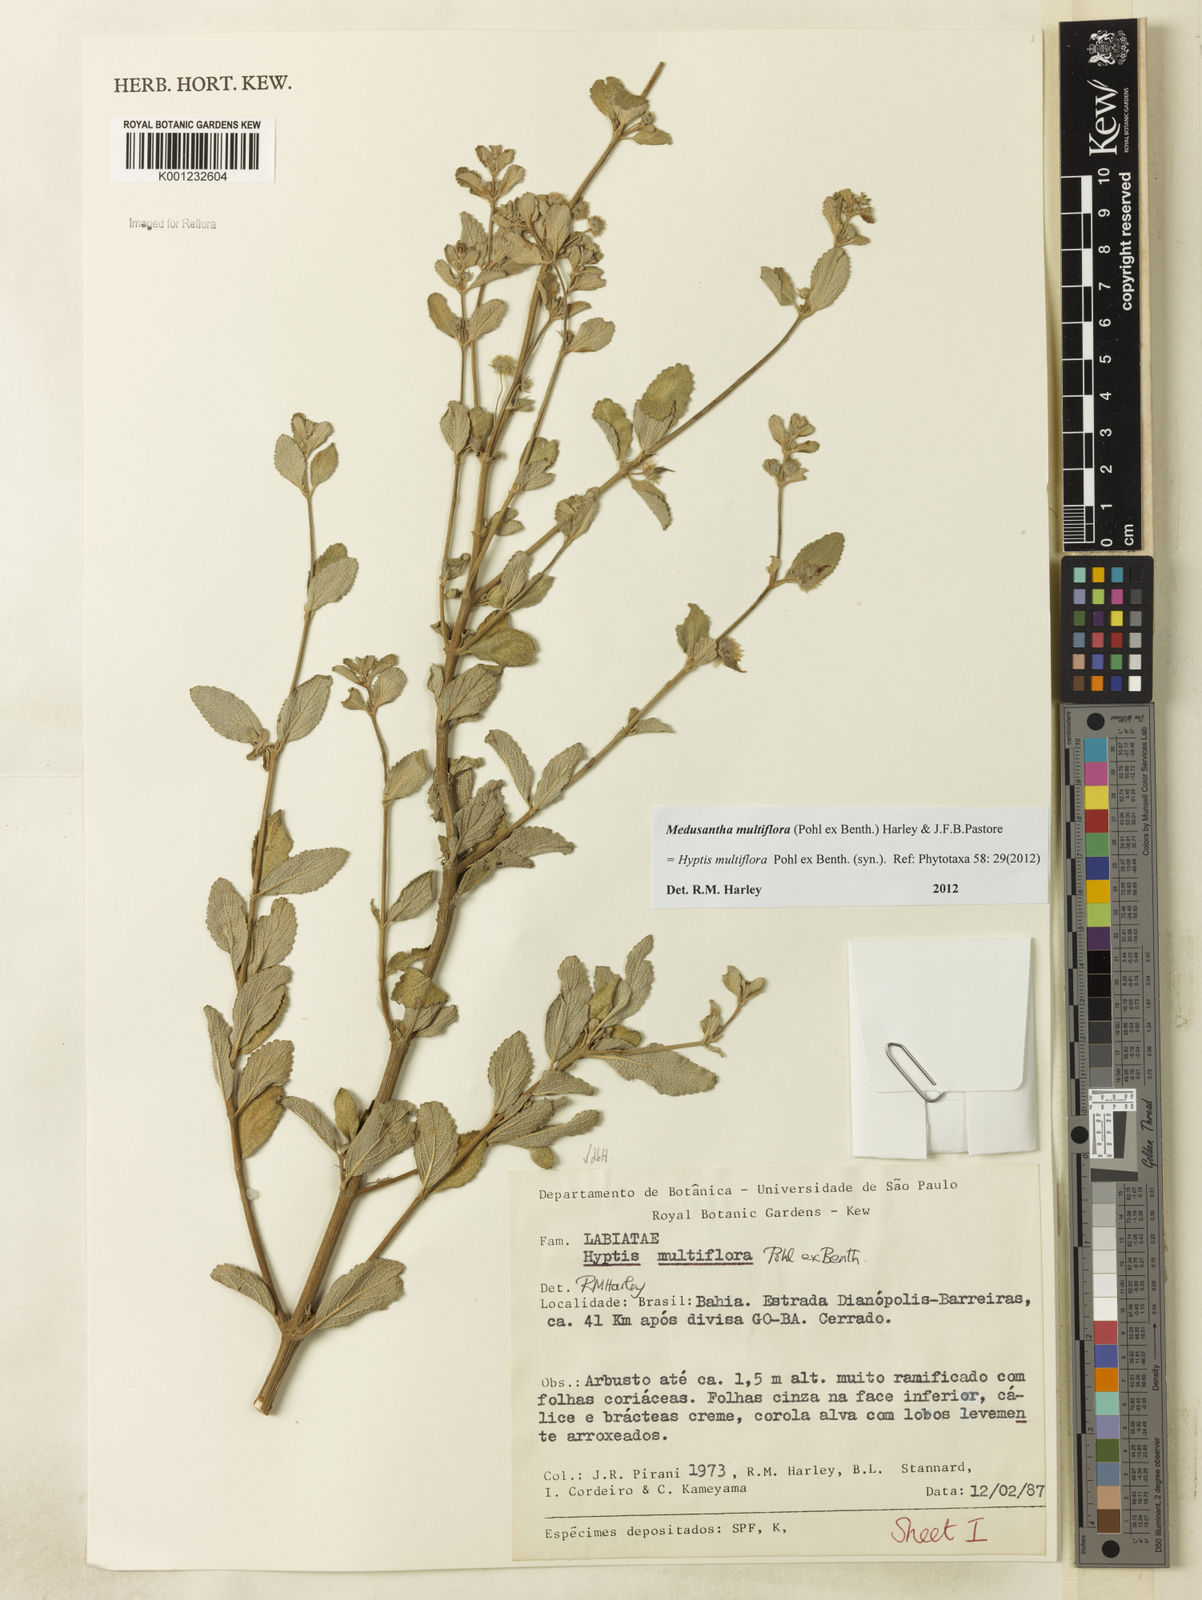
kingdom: Plantae
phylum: Tracheophyta
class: Magnoliopsida
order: Lamiales
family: Lamiaceae
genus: Medusantha
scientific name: Medusantha multiflora
